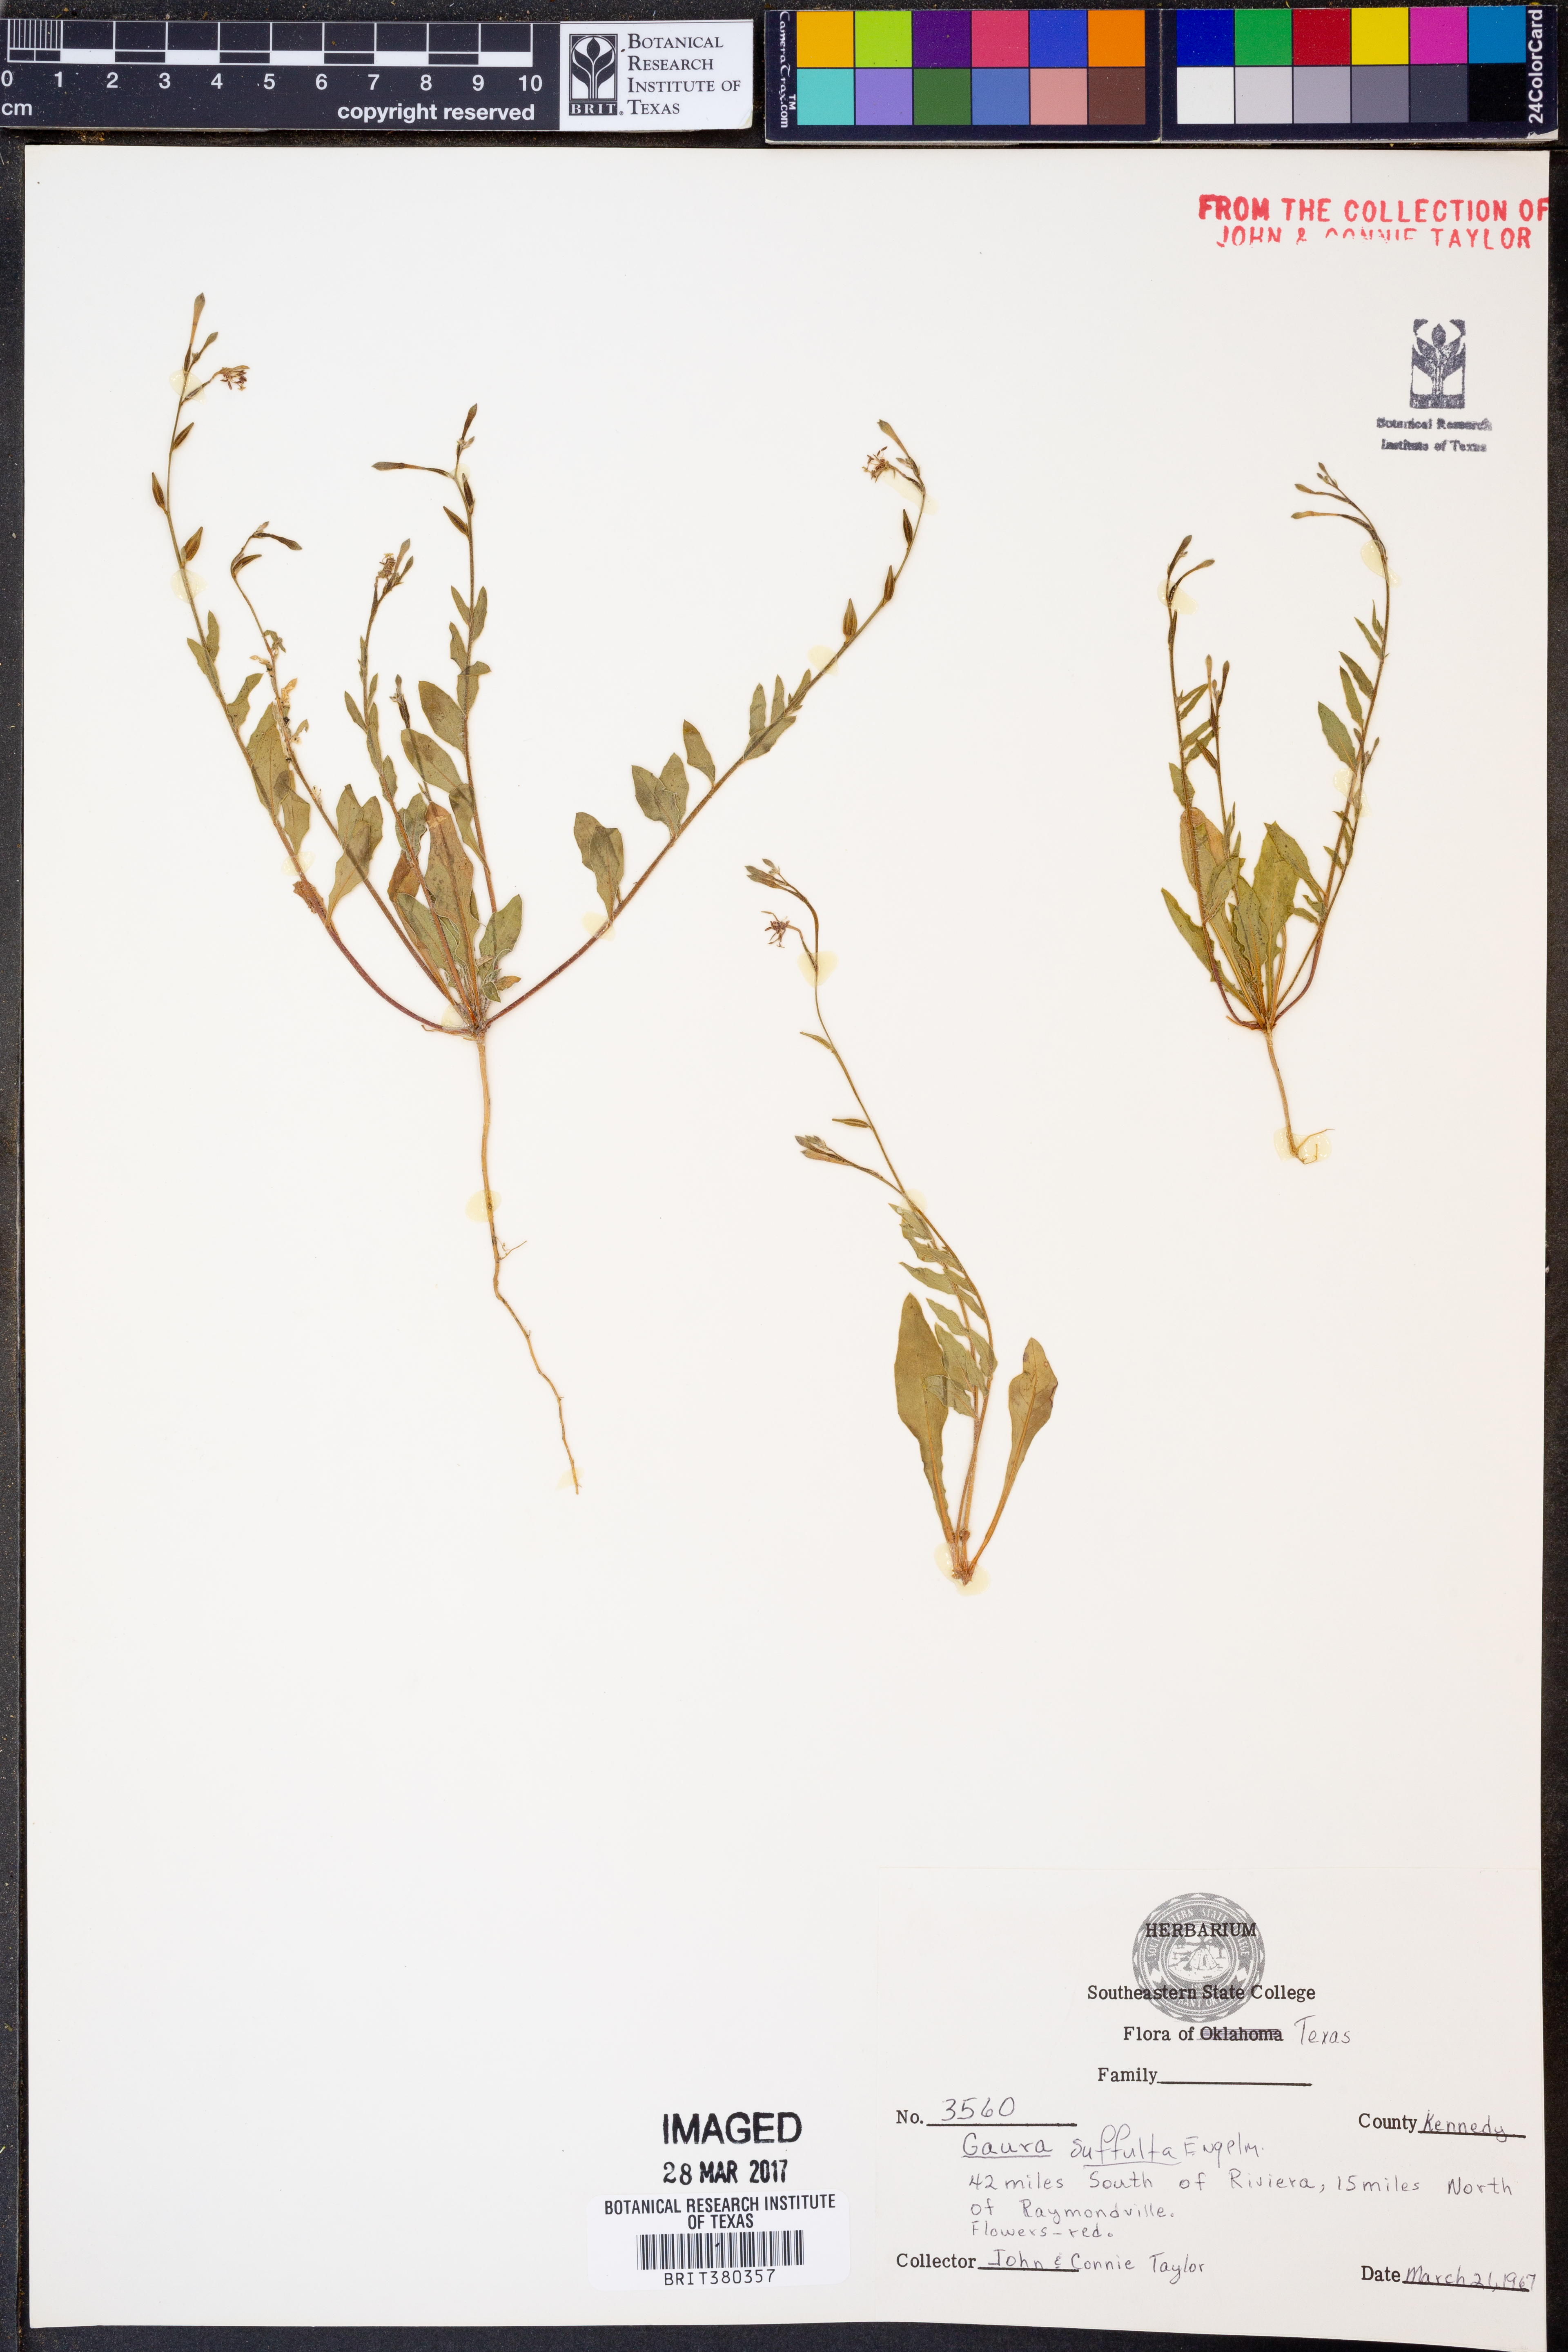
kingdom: Plantae
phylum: Tracheophyta
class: Magnoliopsida
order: Myrtales
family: Onagraceae
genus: Oenothera
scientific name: Oenothera Gaura suffulta
